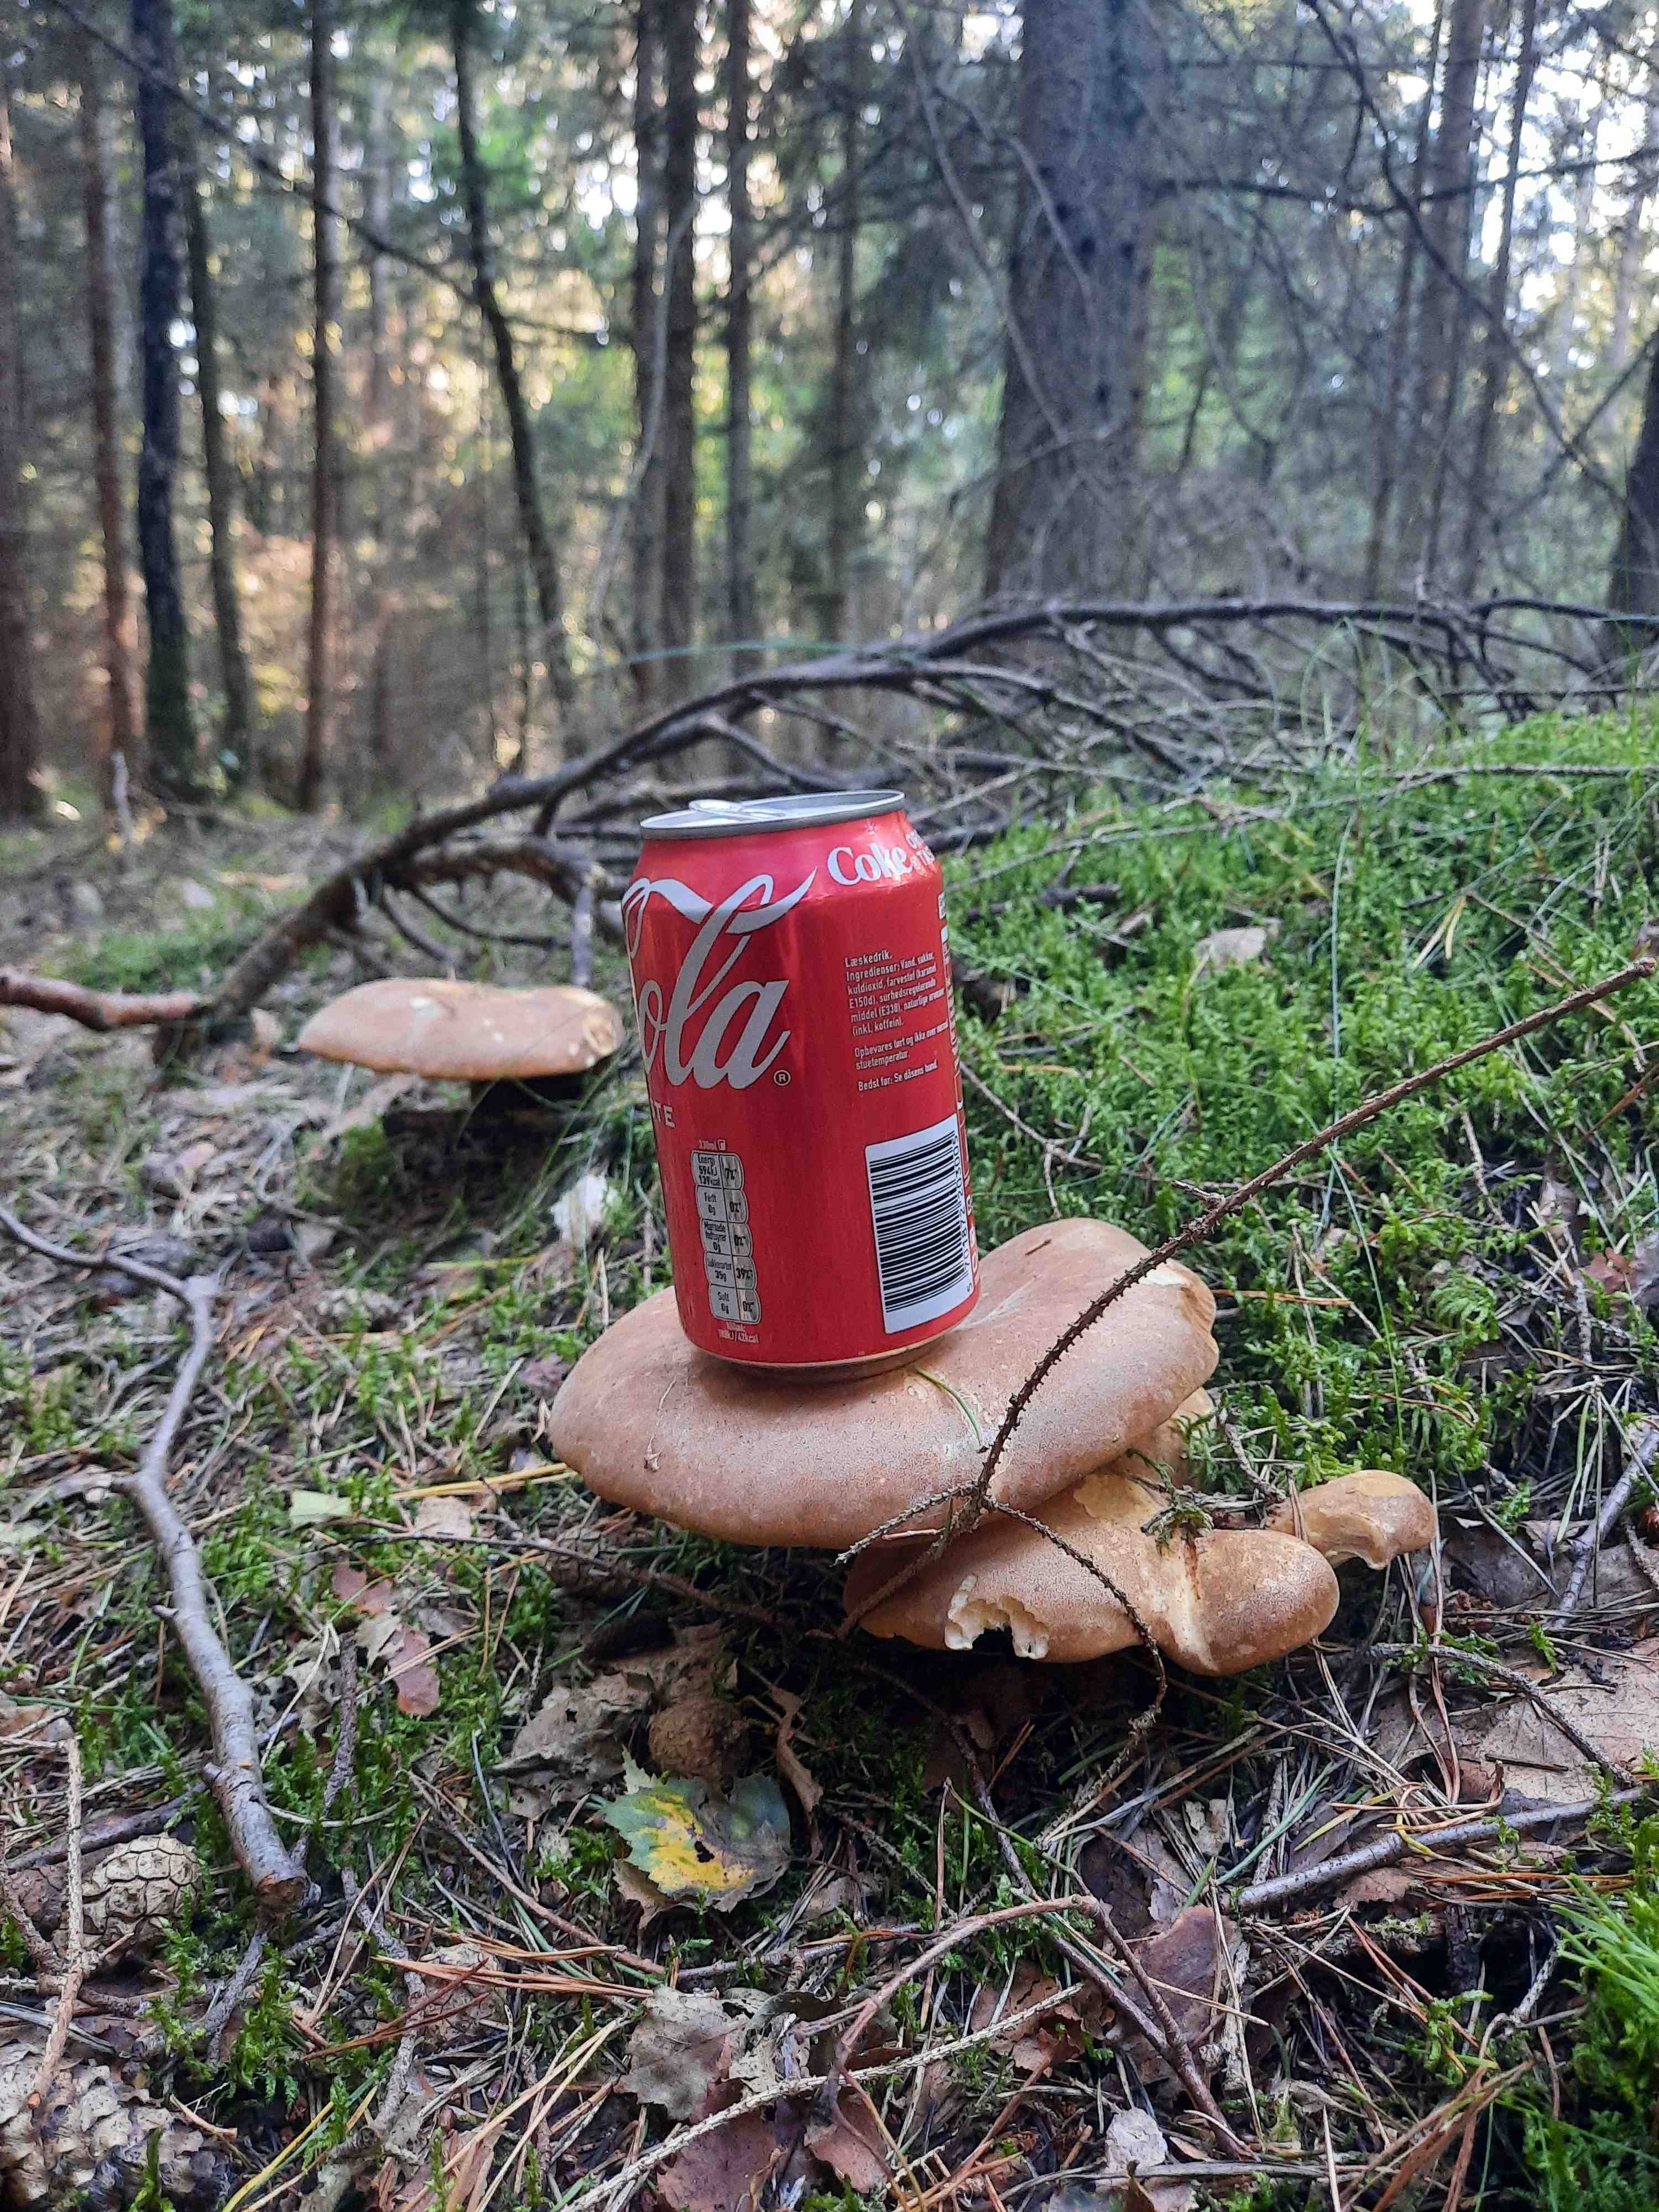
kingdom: Fungi
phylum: Basidiomycota
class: Agaricomycetes
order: Boletales
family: Tapinellaceae
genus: Tapinella
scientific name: Tapinella atrotomentosa
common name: sortfiltet viftesvamp
